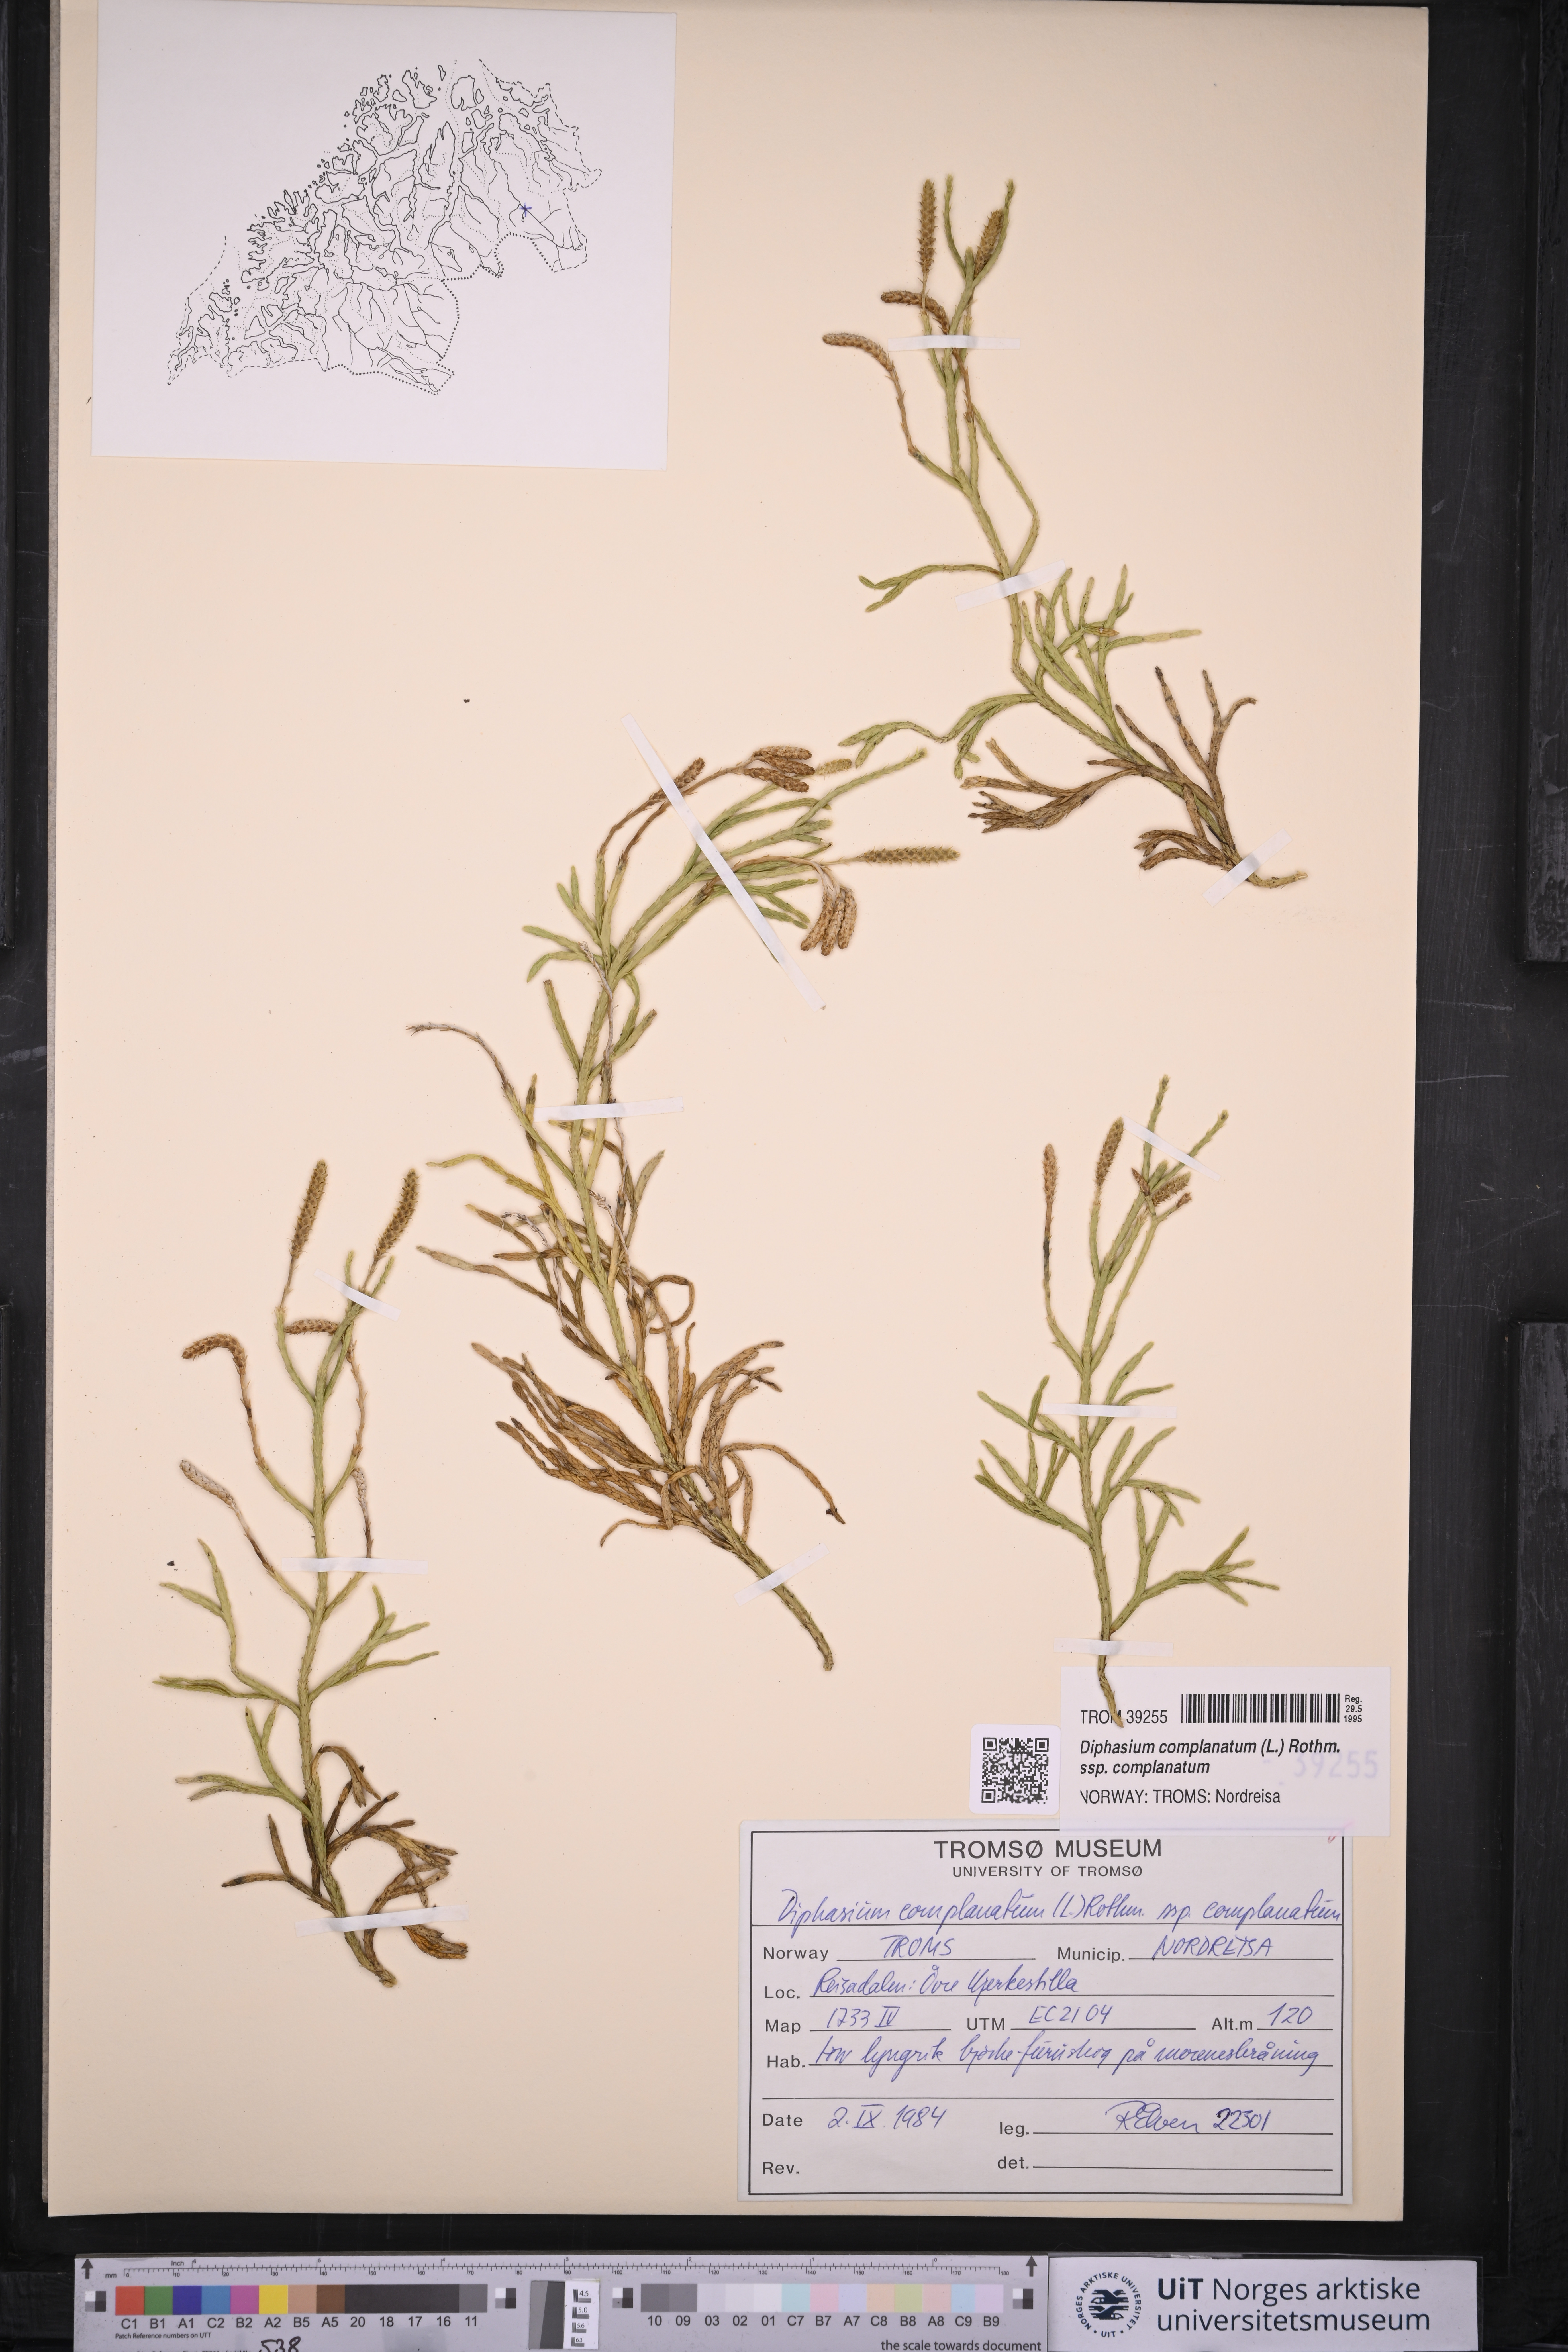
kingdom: Plantae
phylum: Tracheophyta
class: Lycopodiopsida
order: Lycopodiales
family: Lycopodiaceae
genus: Diphasiastrum
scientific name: Diphasiastrum complanatum
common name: Northern running-pine
